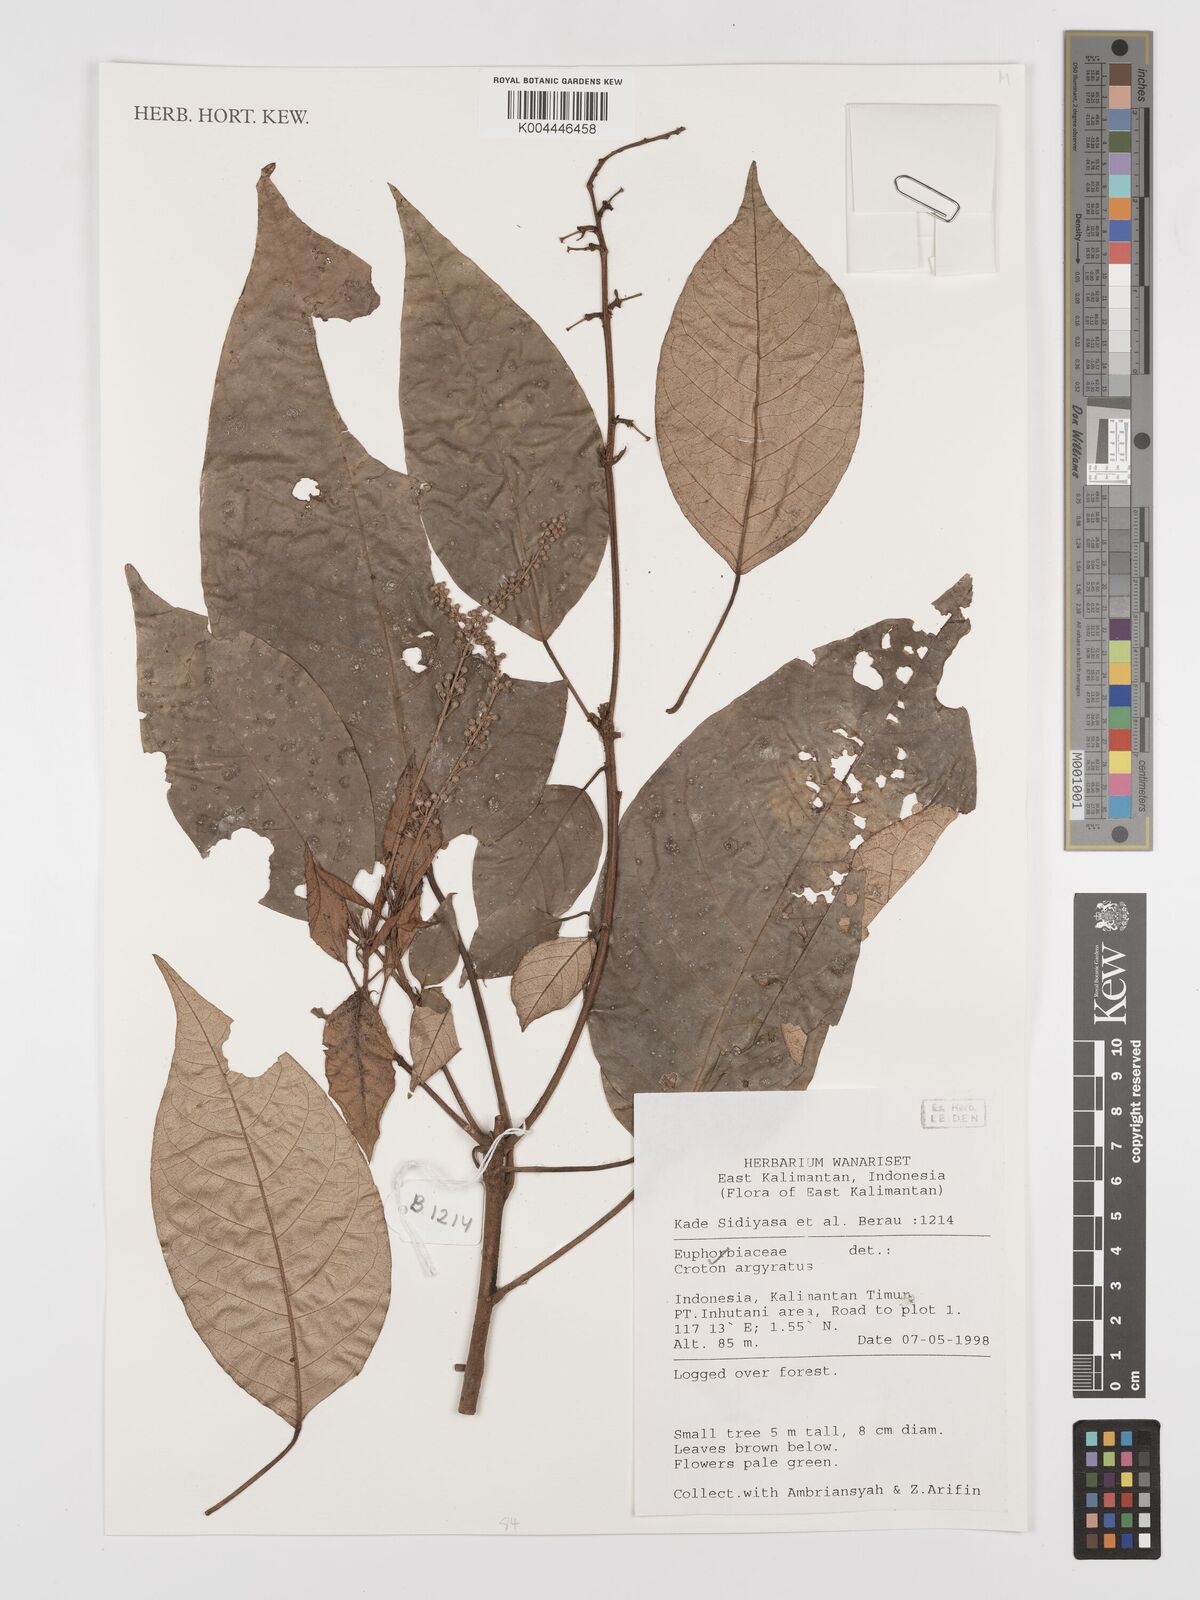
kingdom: Plantae
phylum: Tracheophyta
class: Magnoliopsida
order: Malpighiales
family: Euphorbiaceae
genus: Croton
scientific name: Croton argyratus
